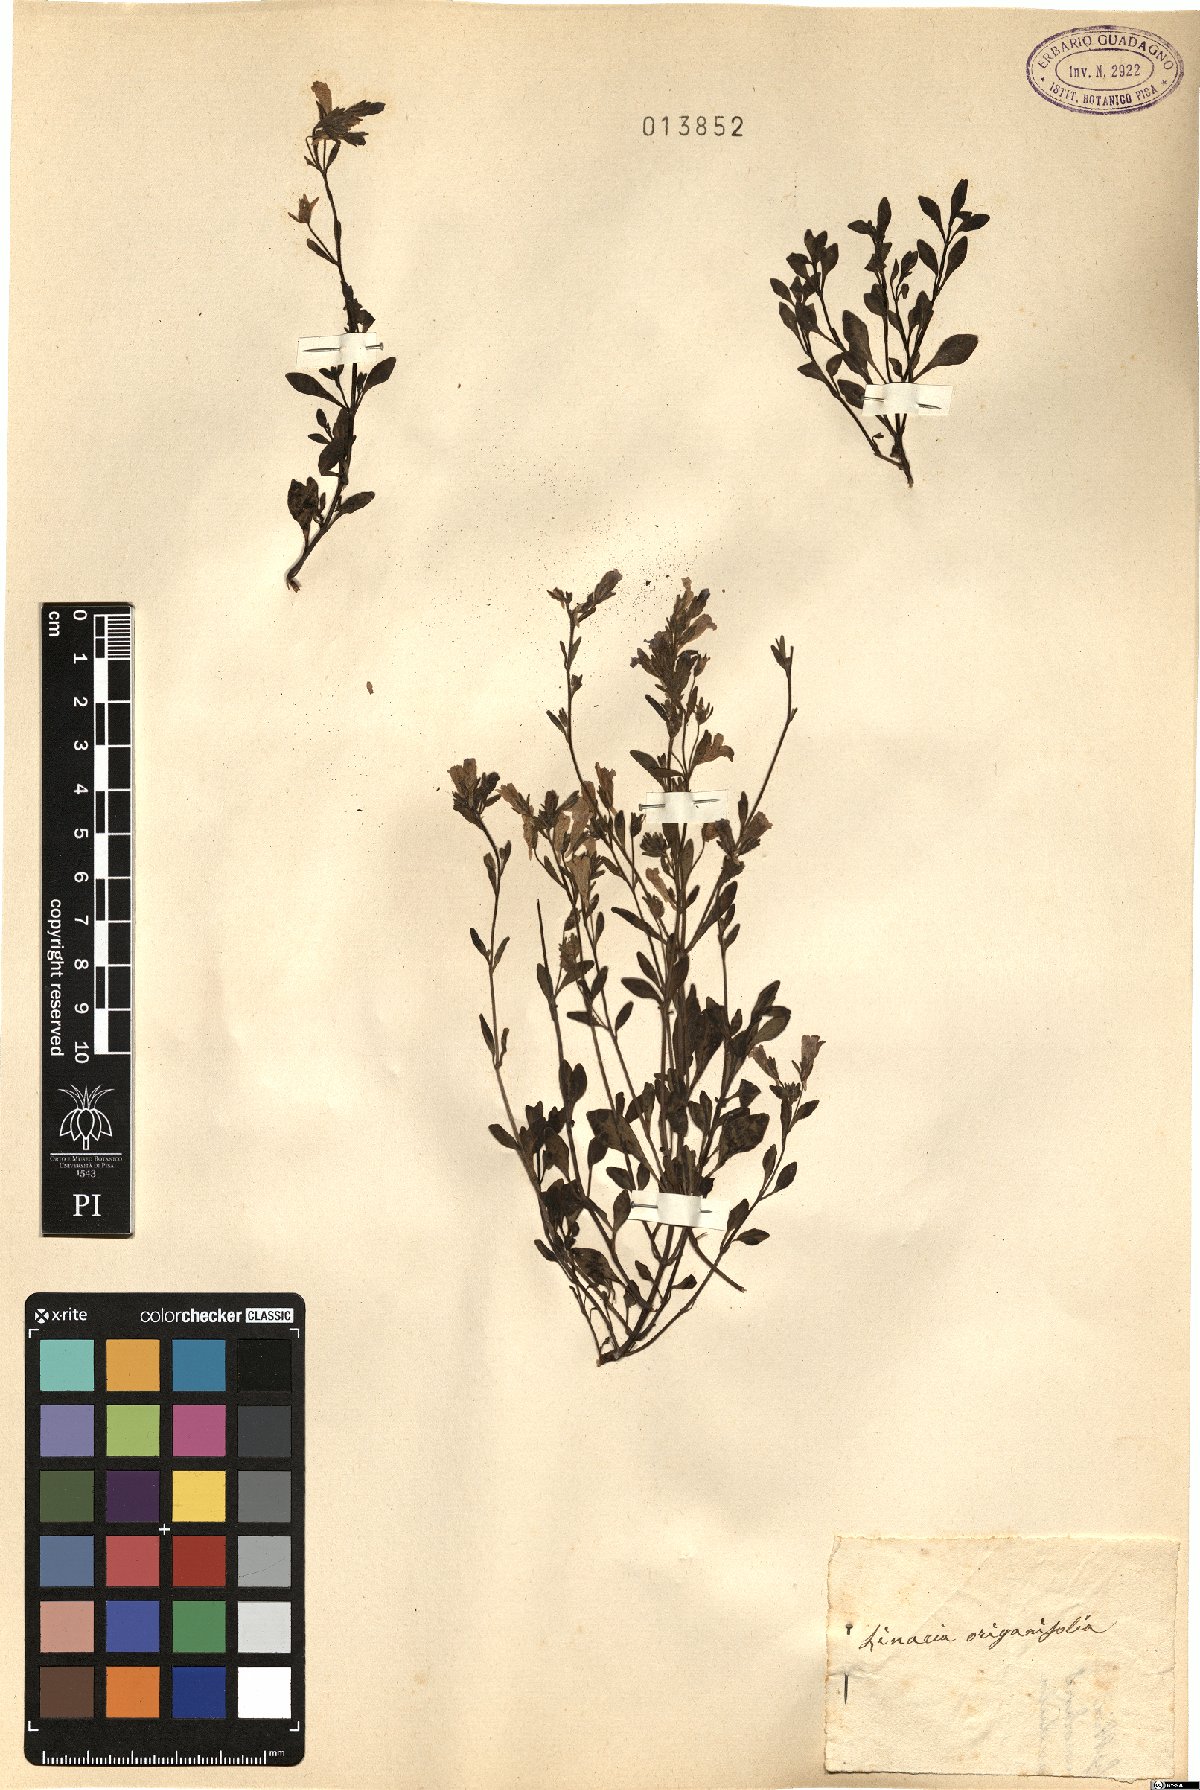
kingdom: Plantae
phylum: Tracheophyta
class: Magnoliopsida
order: Lamiales
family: Plantaginaceae
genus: Chaenorhinum
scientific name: Chaenorhinum origanifolium
